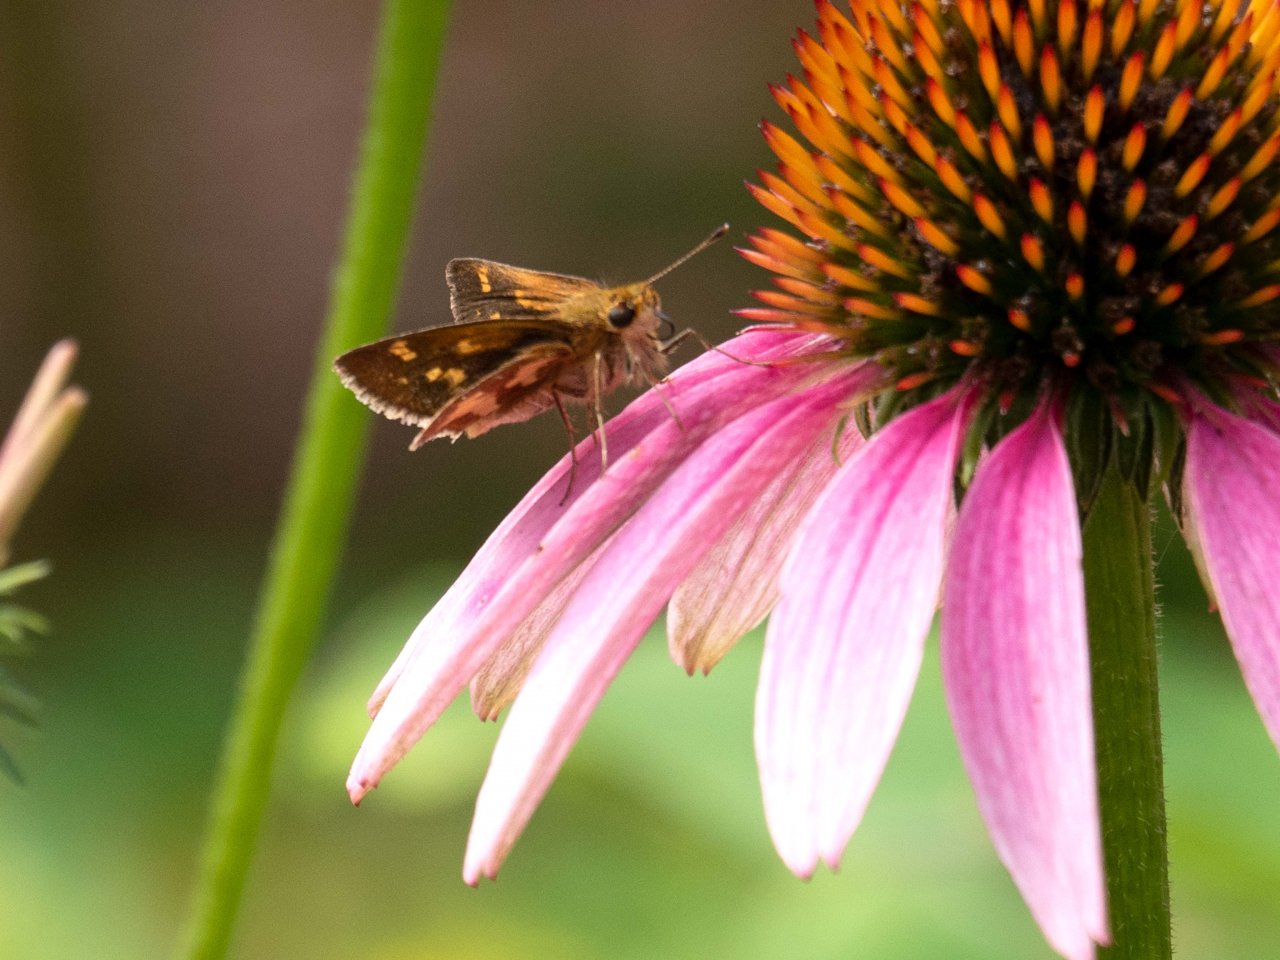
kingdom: Animalia
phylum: Arthropoda
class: Insecta
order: Lepidoptera
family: Hesperiidae
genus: Polites
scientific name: Polites coras
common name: Peck's Skipper
